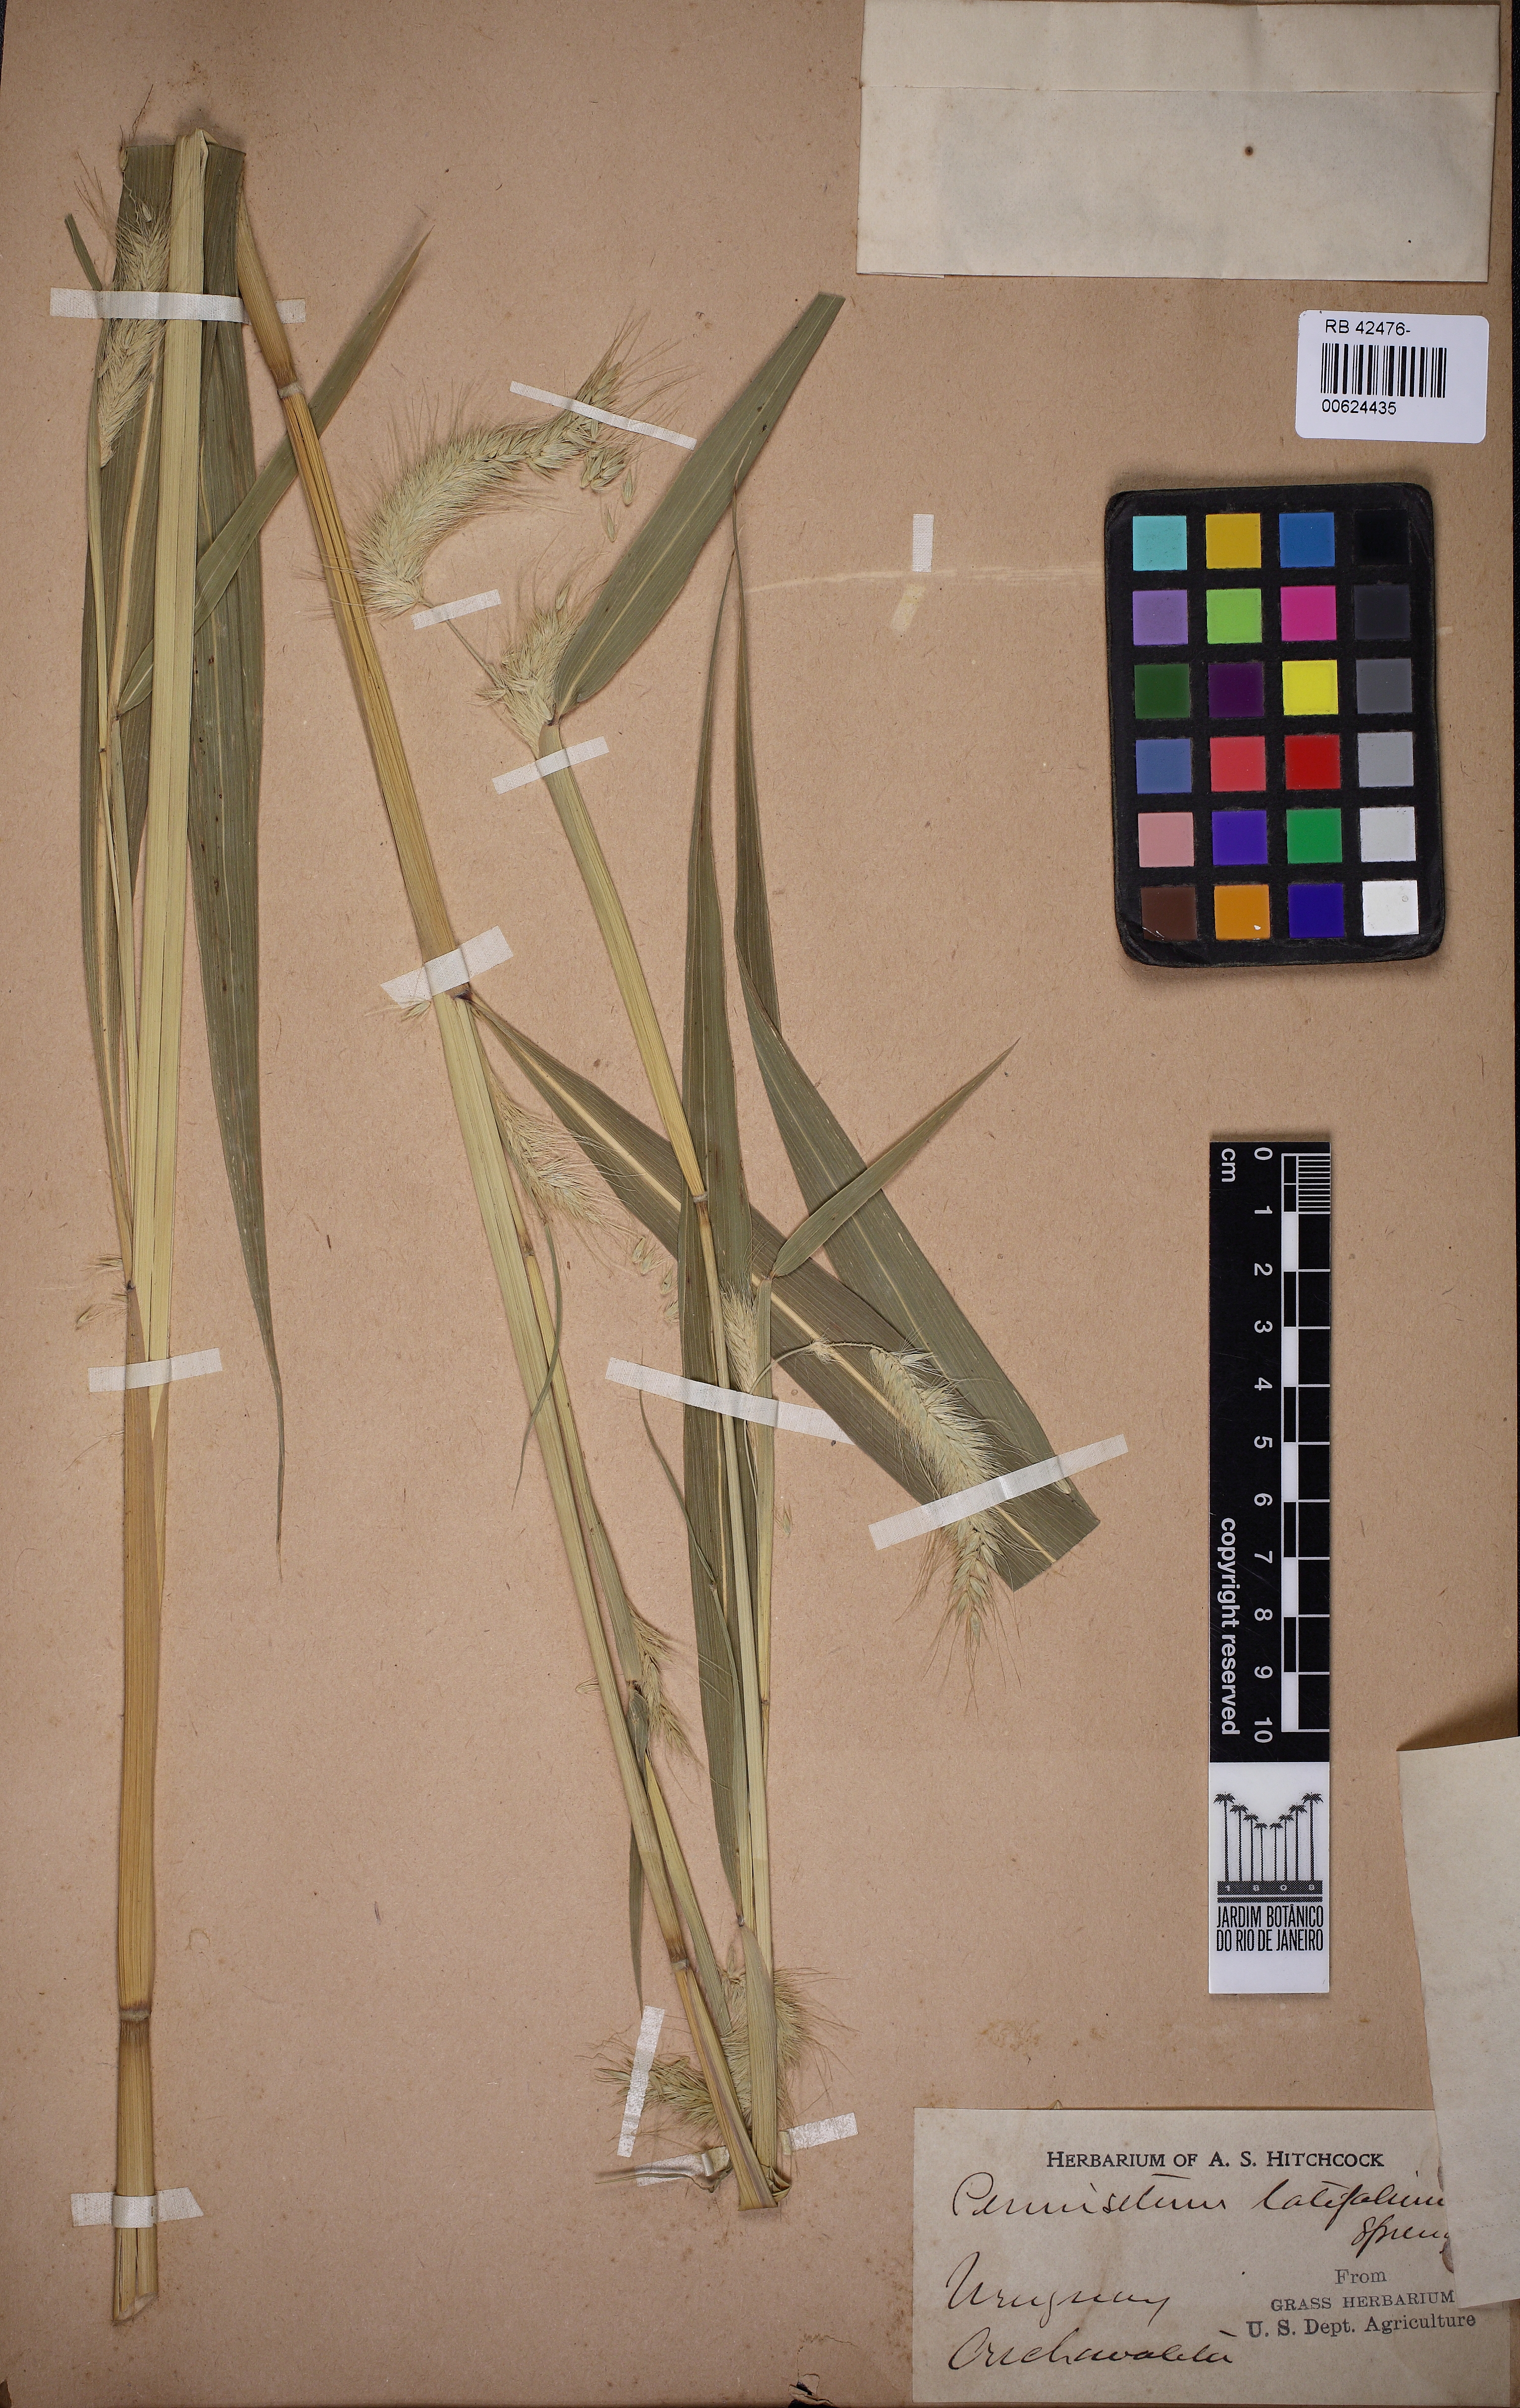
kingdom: Plantae
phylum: Tracheophyta
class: Liliopsida
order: Poales
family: Poaceae
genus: Cenchrus
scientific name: Cenchrus latifolius
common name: Sandbur
